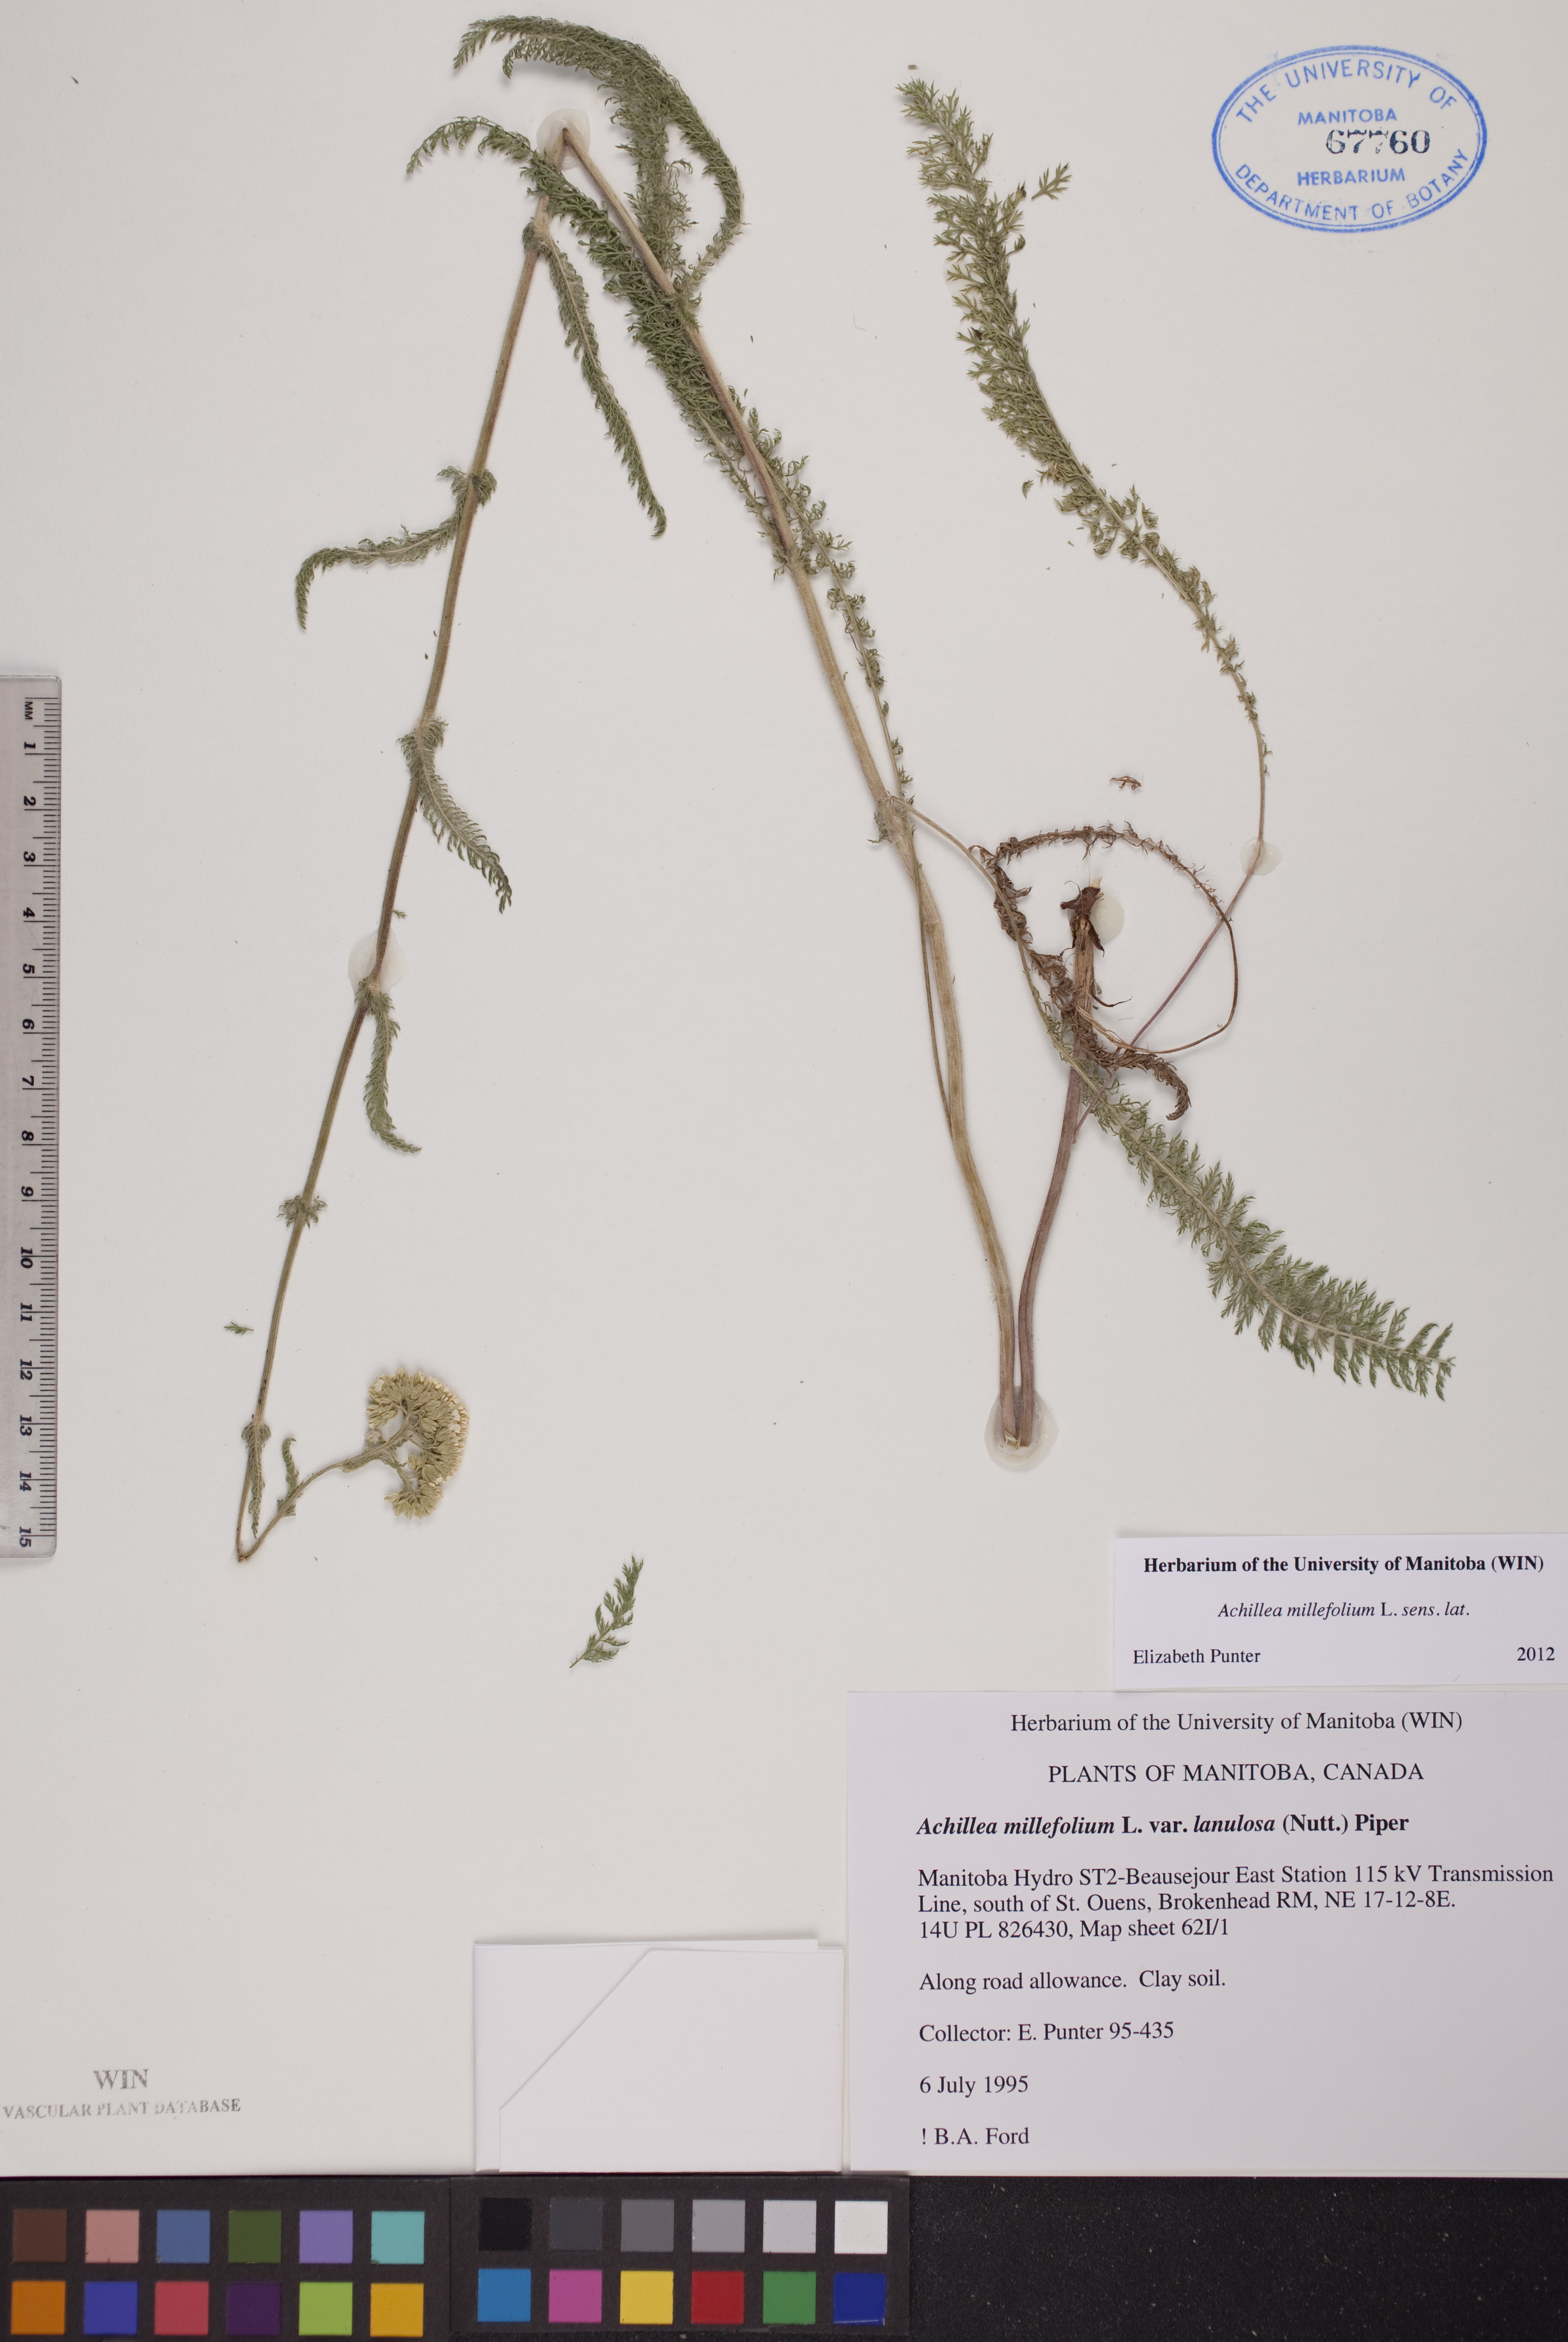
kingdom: Plantae
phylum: Tracheophyta
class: Magnoliopsida
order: Asterales
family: Asteraceae
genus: Achillea
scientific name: Achillea millefolium
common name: Yarrow
